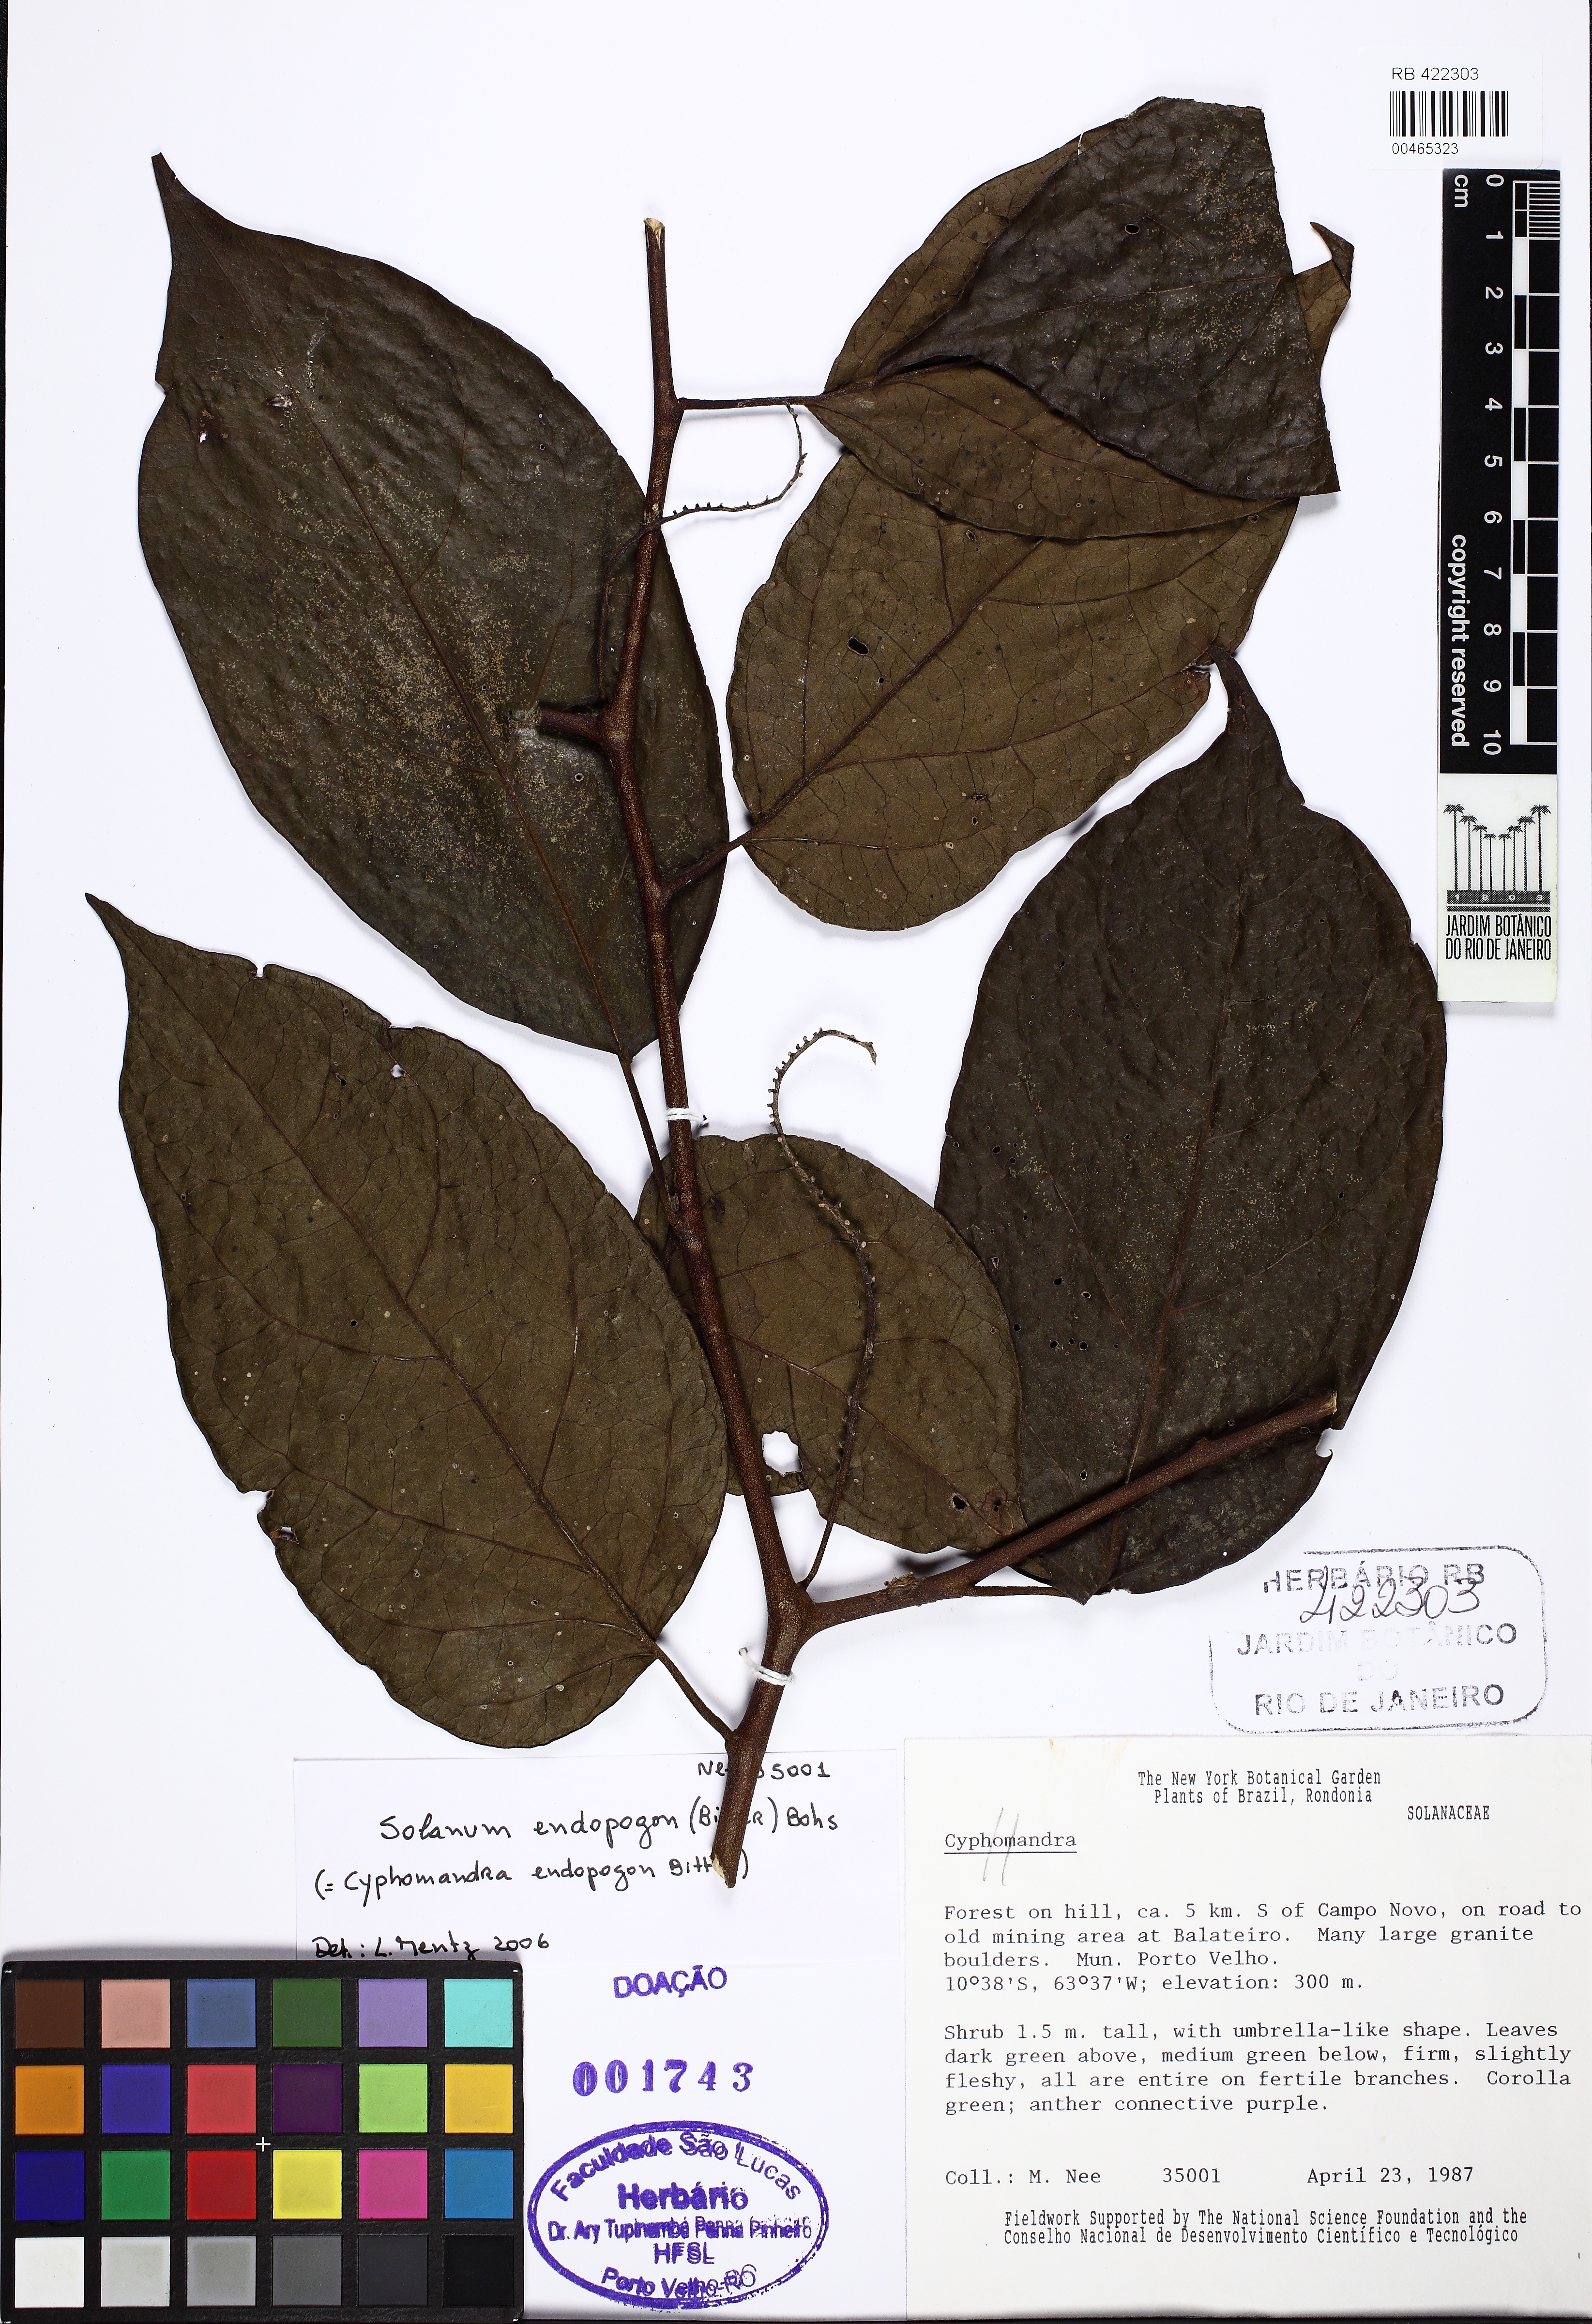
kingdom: Plantae
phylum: Tracheophyta
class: Magnoliopsida
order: Solanales
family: Solanaceae
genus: Solanum
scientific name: Solanum endopogon
